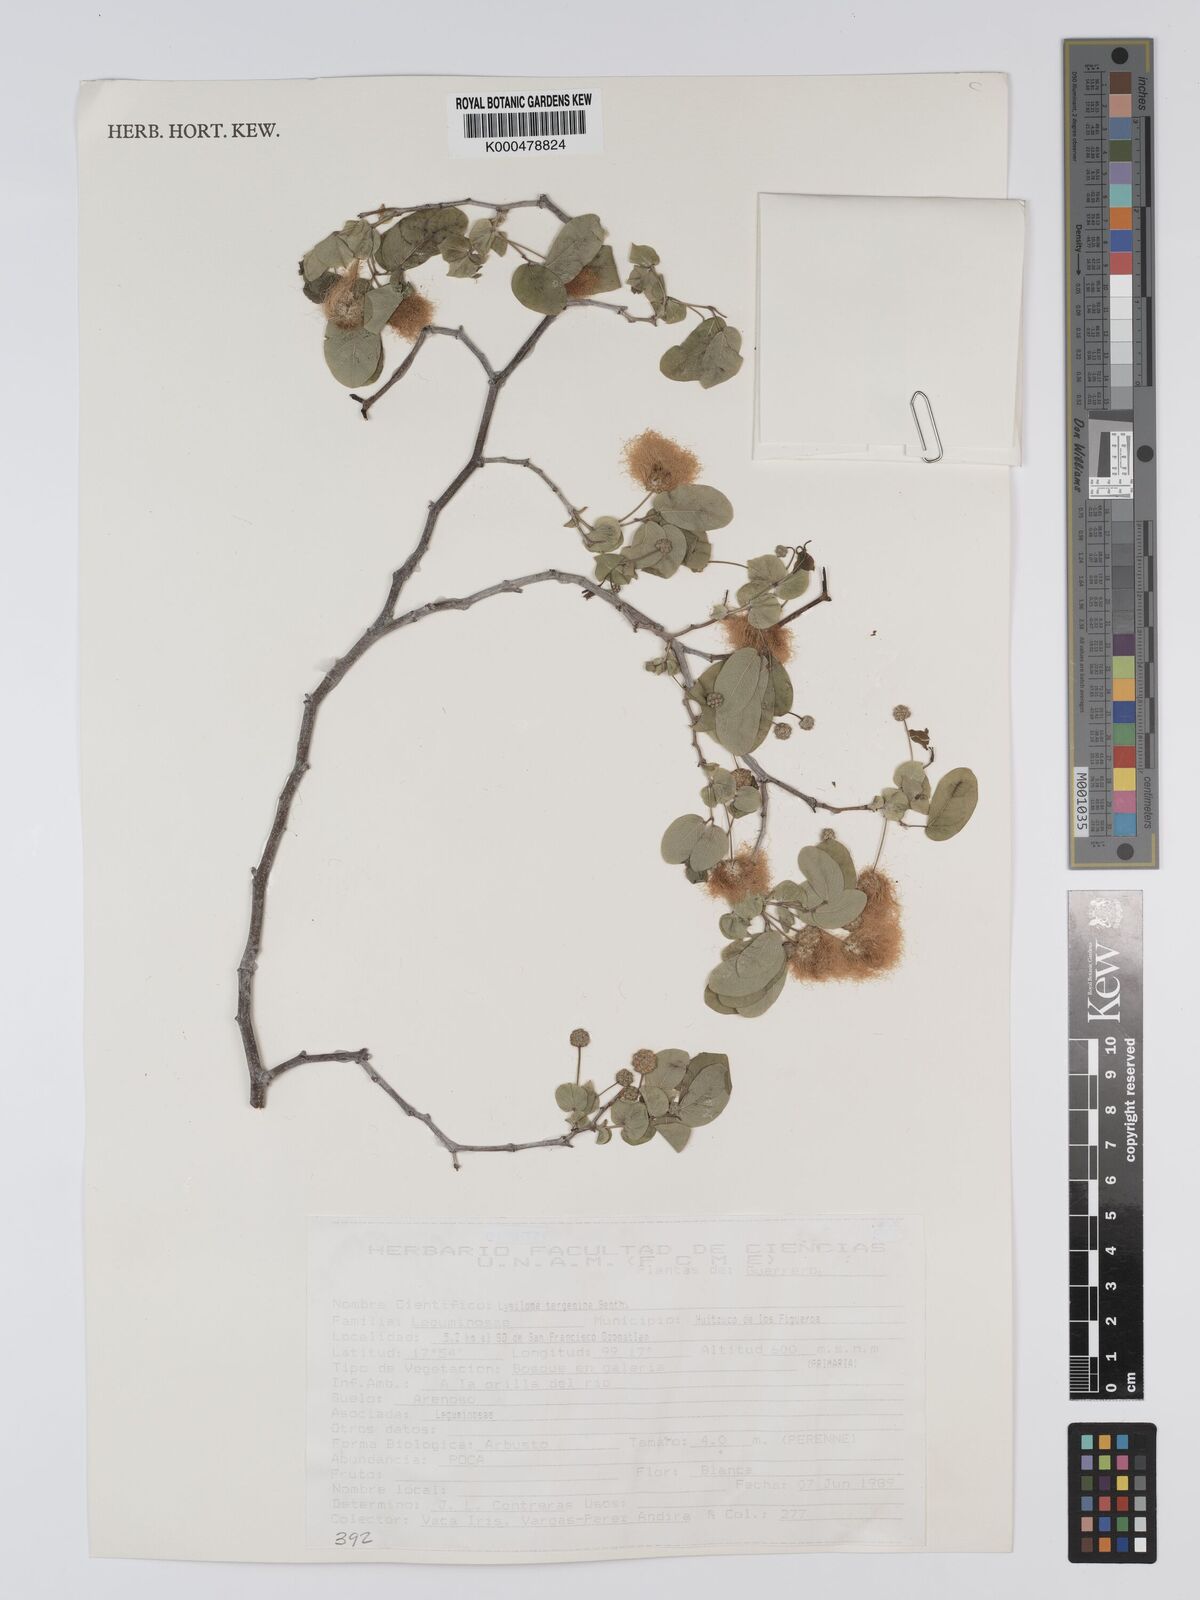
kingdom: Plantae
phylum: Tracheophyta
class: Magnoliopsida
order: Fabales
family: Fabaceae
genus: Lysiloma
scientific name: Lysiloma tergeminum
